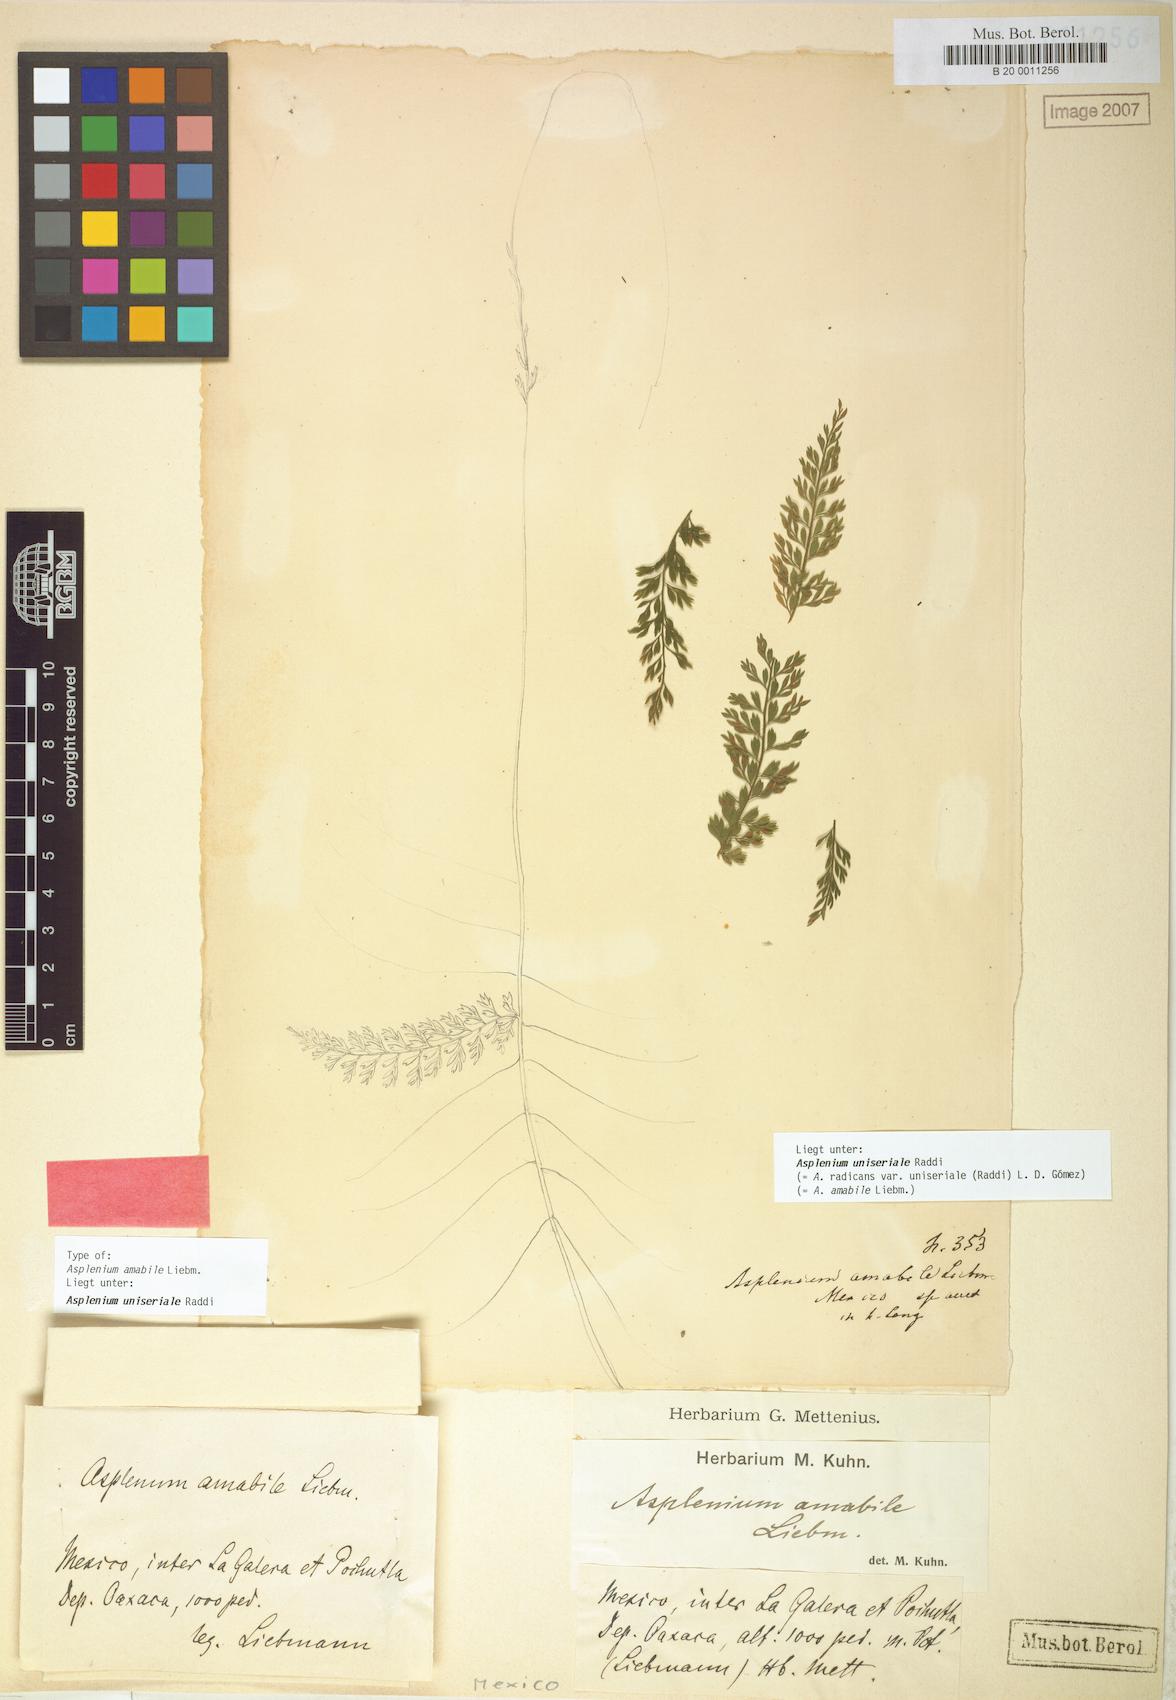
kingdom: Plantae
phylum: Tracheophyta
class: Polypodiopsida
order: Polypodiales
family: Aspleniaceae
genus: Asplenium
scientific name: Asplenium radicans
